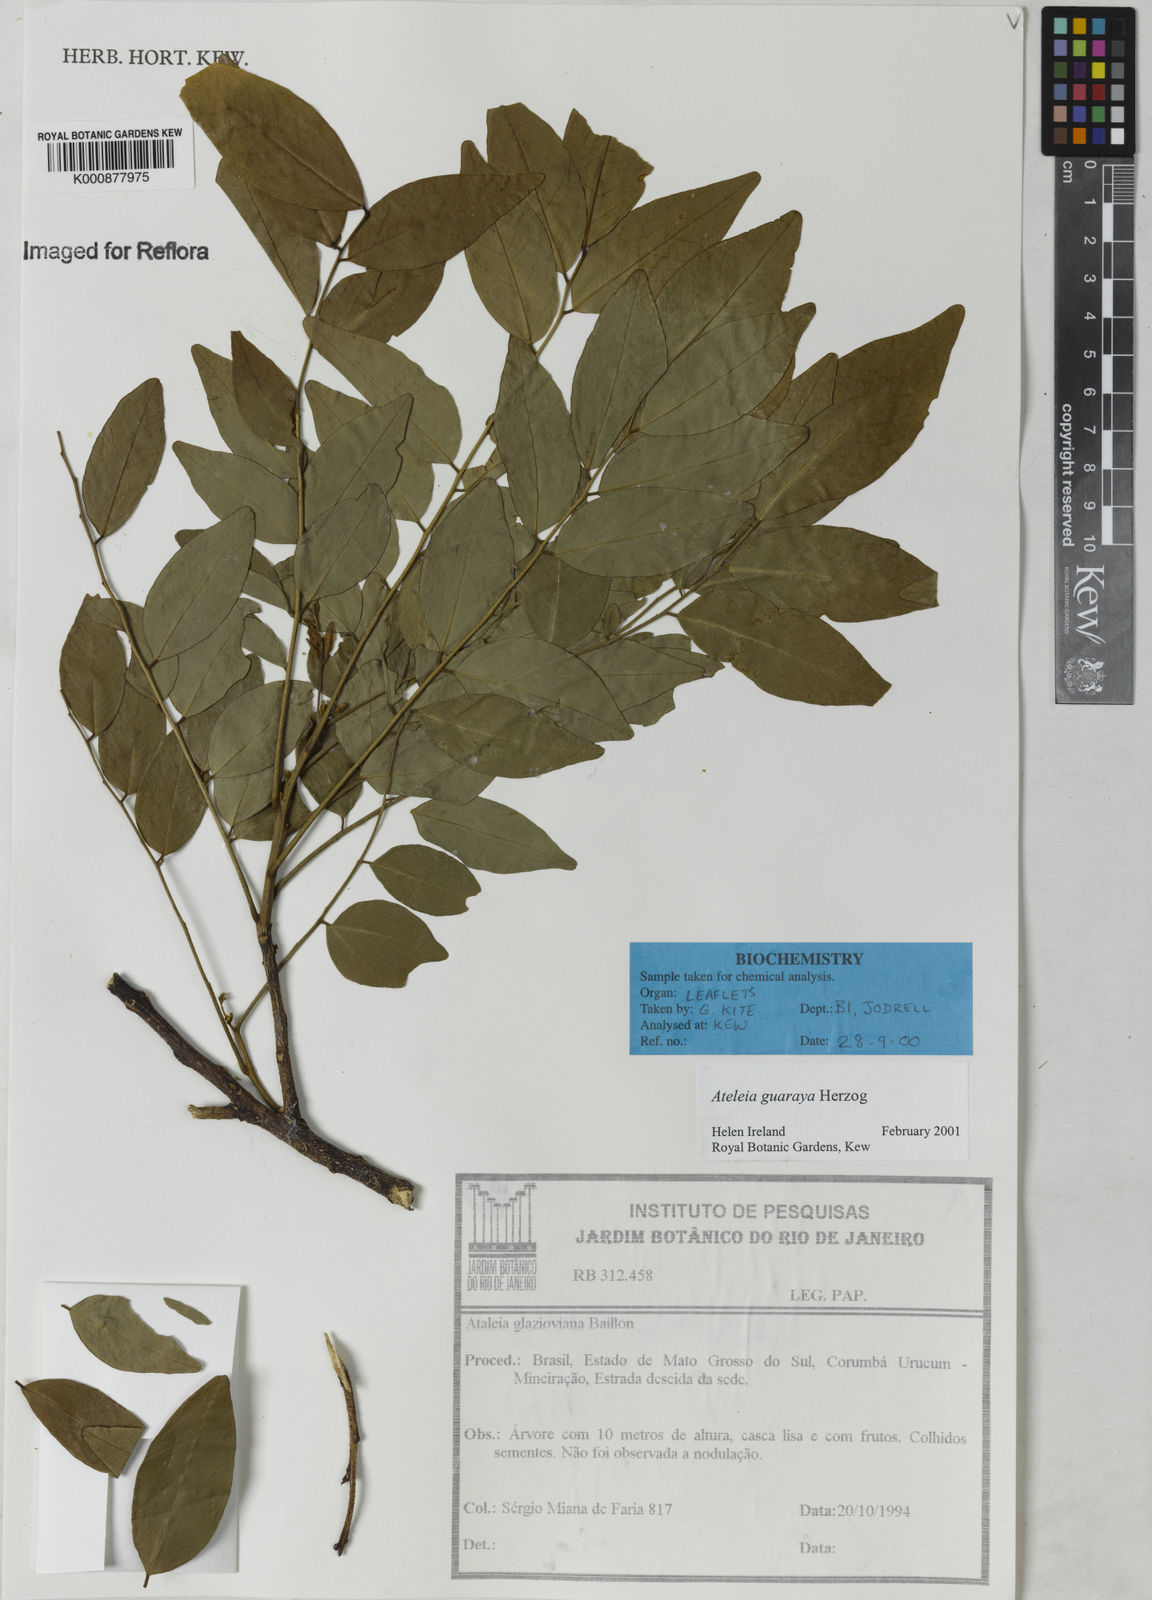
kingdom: Plantae
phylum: Tracheophyta
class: Magnoliopsida
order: Fabales
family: Fabaceae
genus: Ateleia
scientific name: Ateleia guaraya
